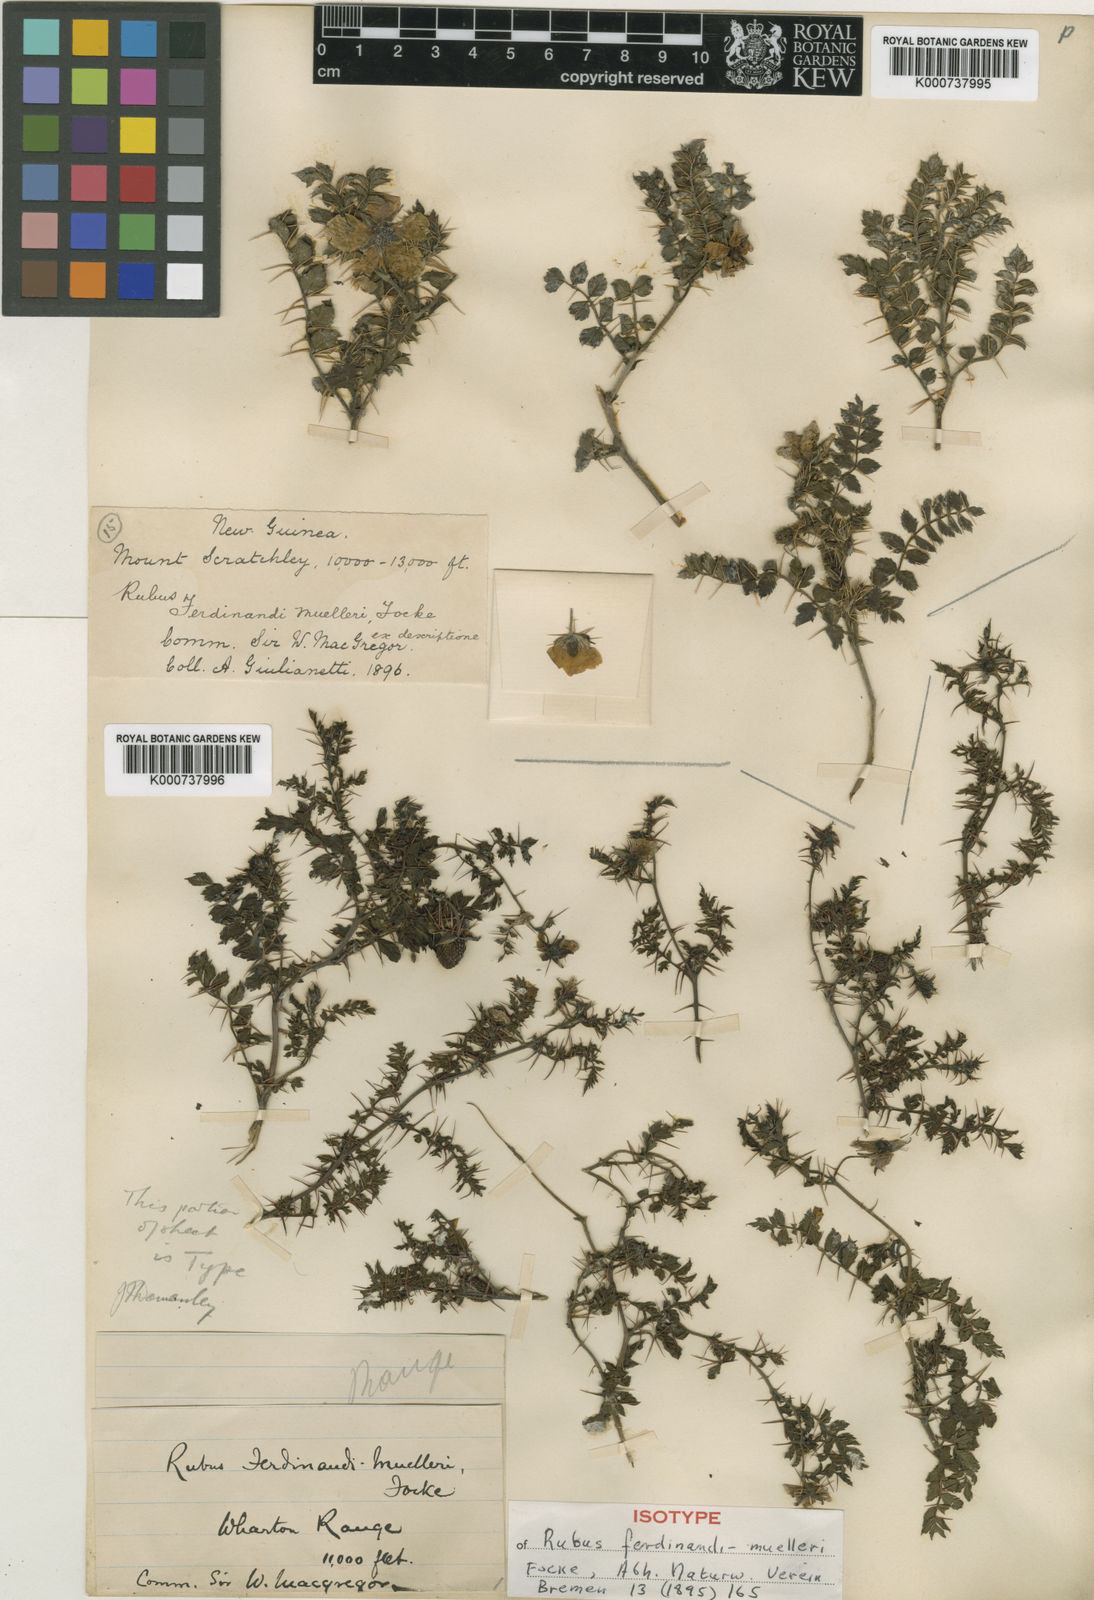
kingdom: Plantae
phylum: Tracheophyta
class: Magnoliopsida
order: Rosales
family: Rosaceae
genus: Rubus
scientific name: Rubus ferdinandimuelleri
